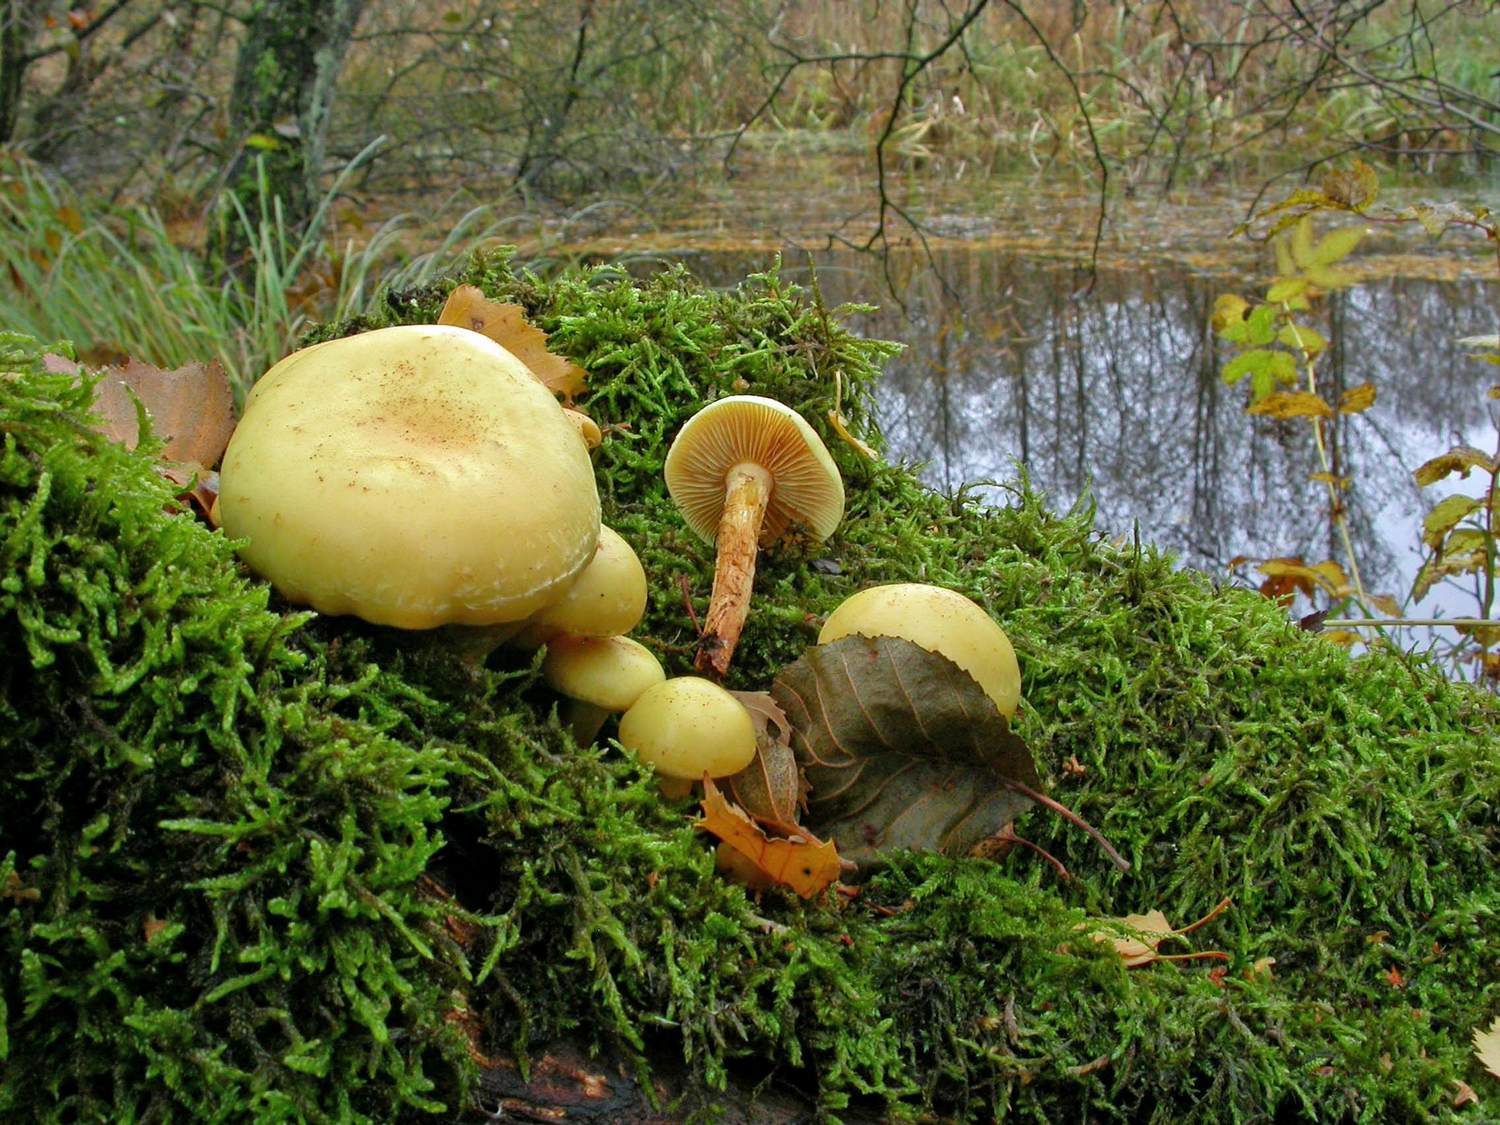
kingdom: Fungi
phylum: Basidiomycota
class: Agaricomycetes
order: Agaricales
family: Hymenogastraceae
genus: Flammula
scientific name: Flammula alnicola
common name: elle-skælhat
